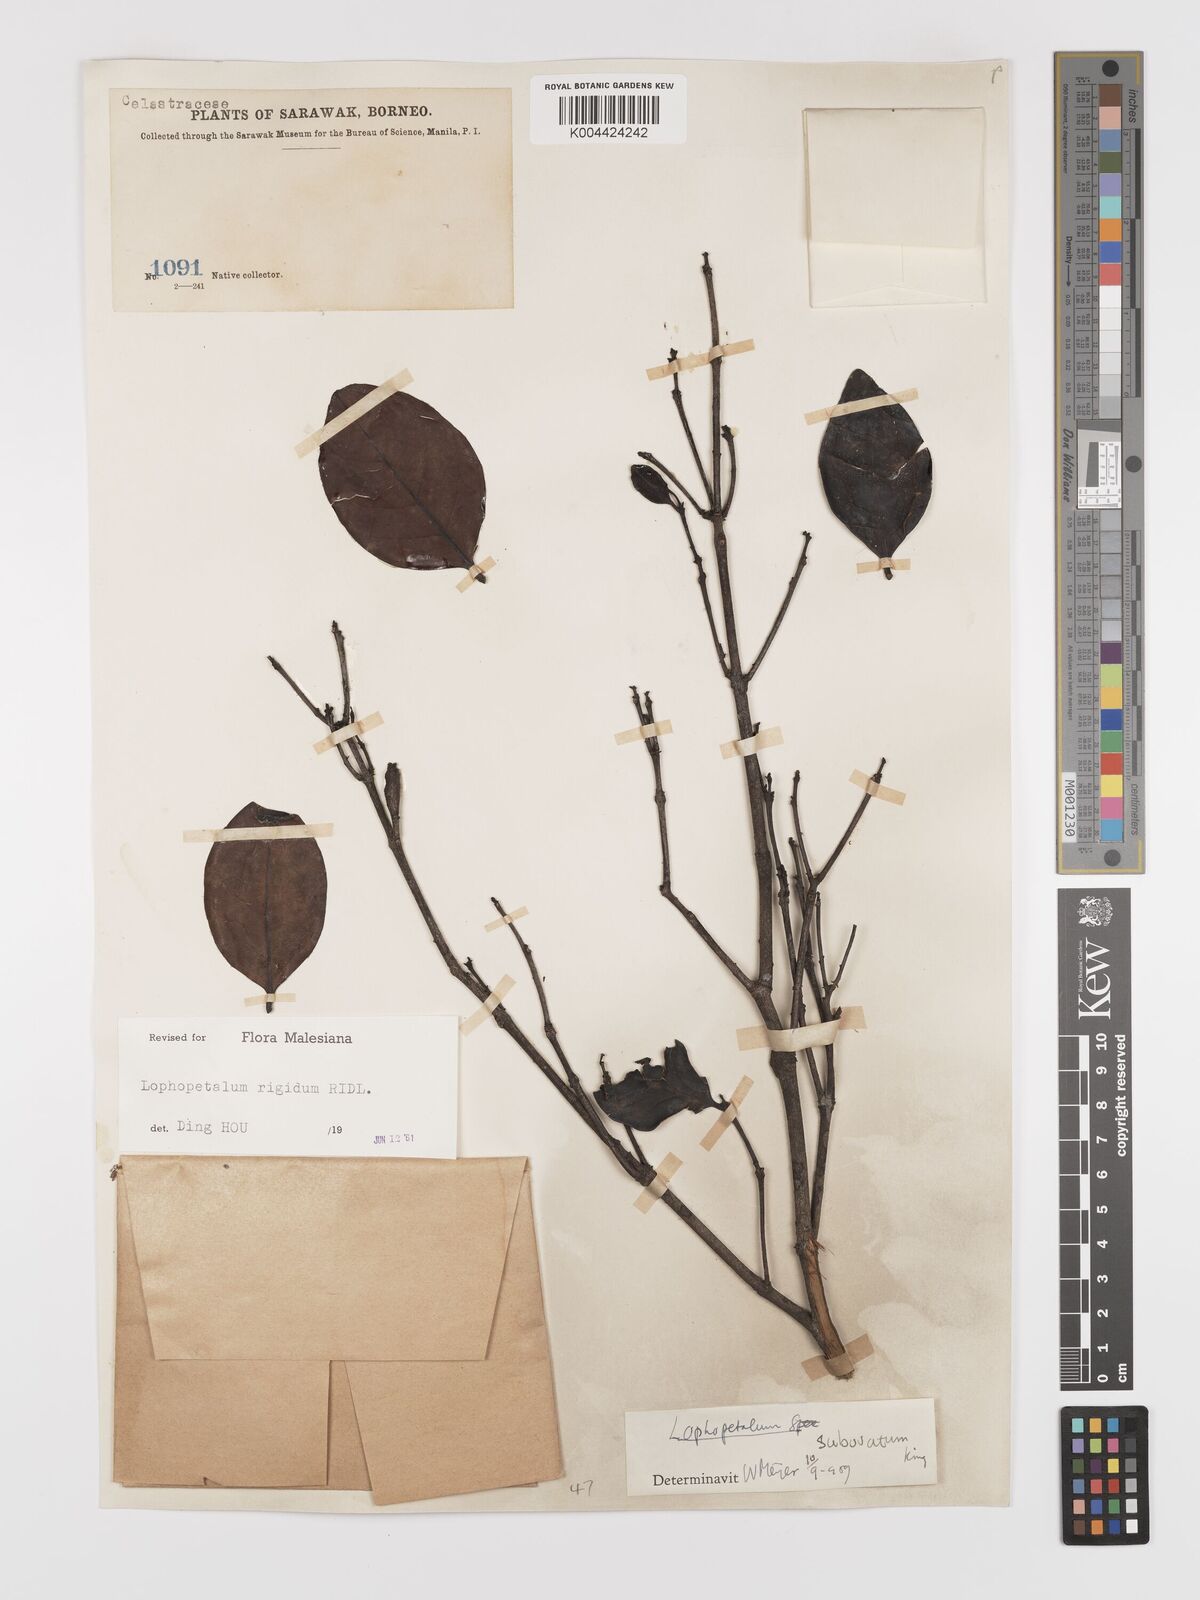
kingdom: Plantae
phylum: Tracheophyta
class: Magnoliopsida
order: Celastrales
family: Celastraceae
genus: Lophopetalum
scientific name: Lophopetalum rigidum
